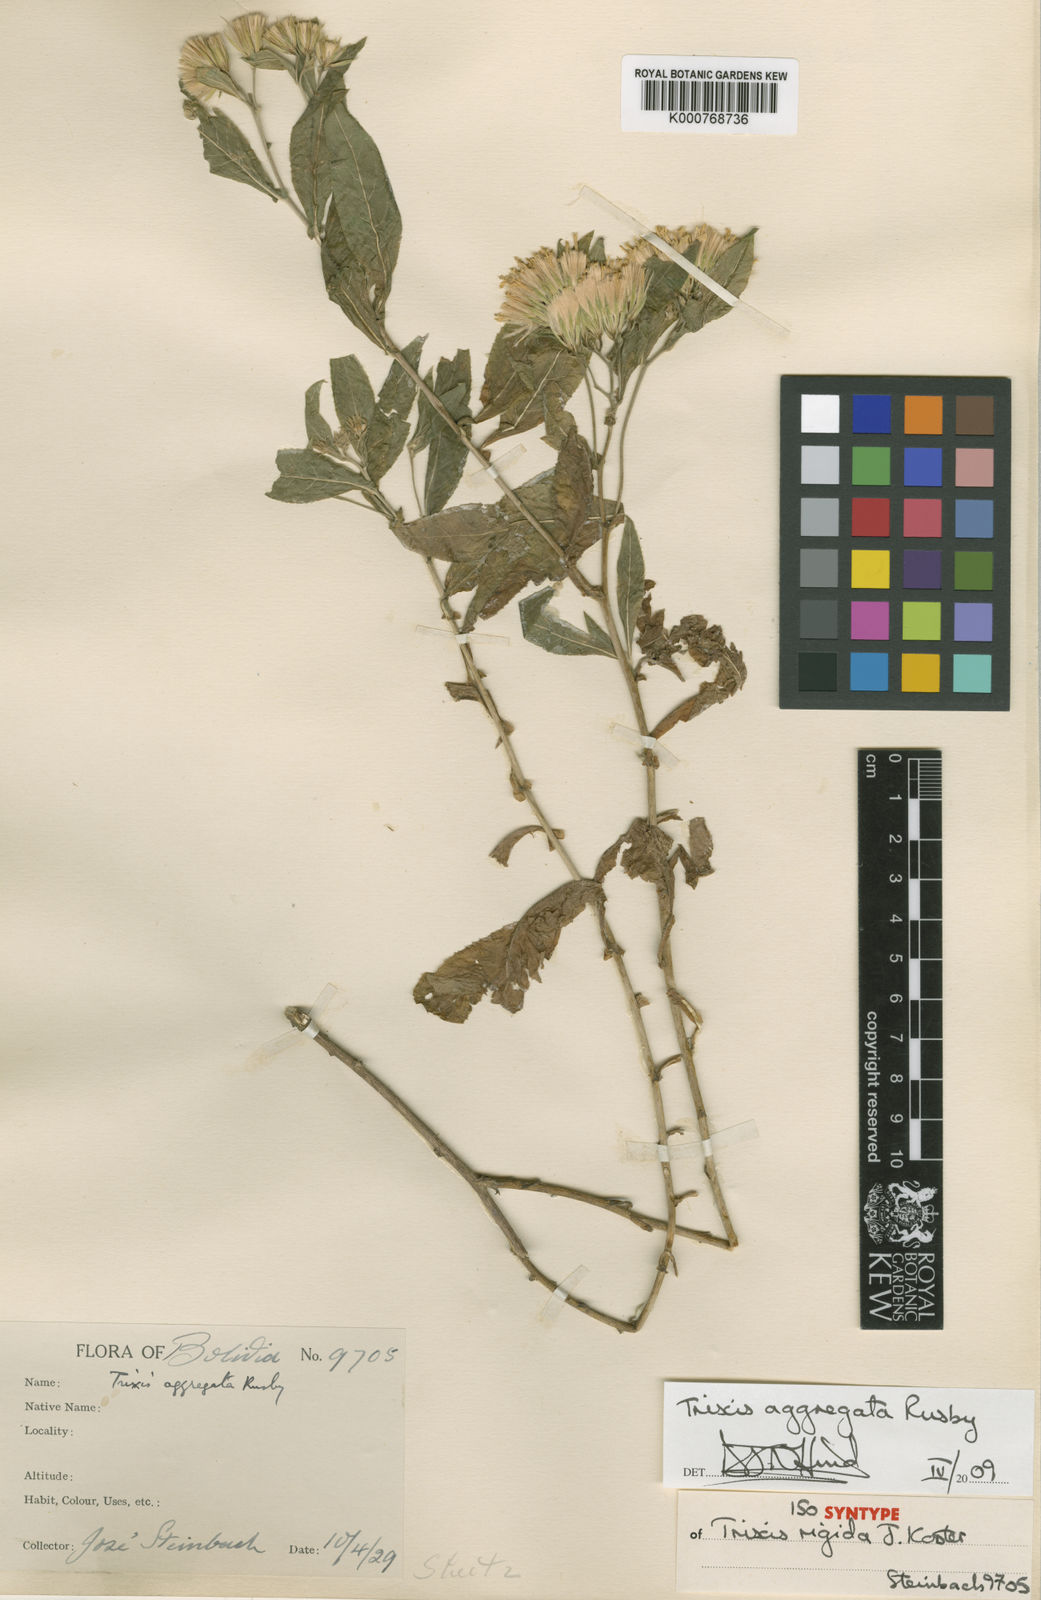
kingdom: Plantae
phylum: Tracheophyta
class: Magnoliopsida
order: Asterales
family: Asteraceae
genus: Trixis
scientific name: Trixis aggregata
